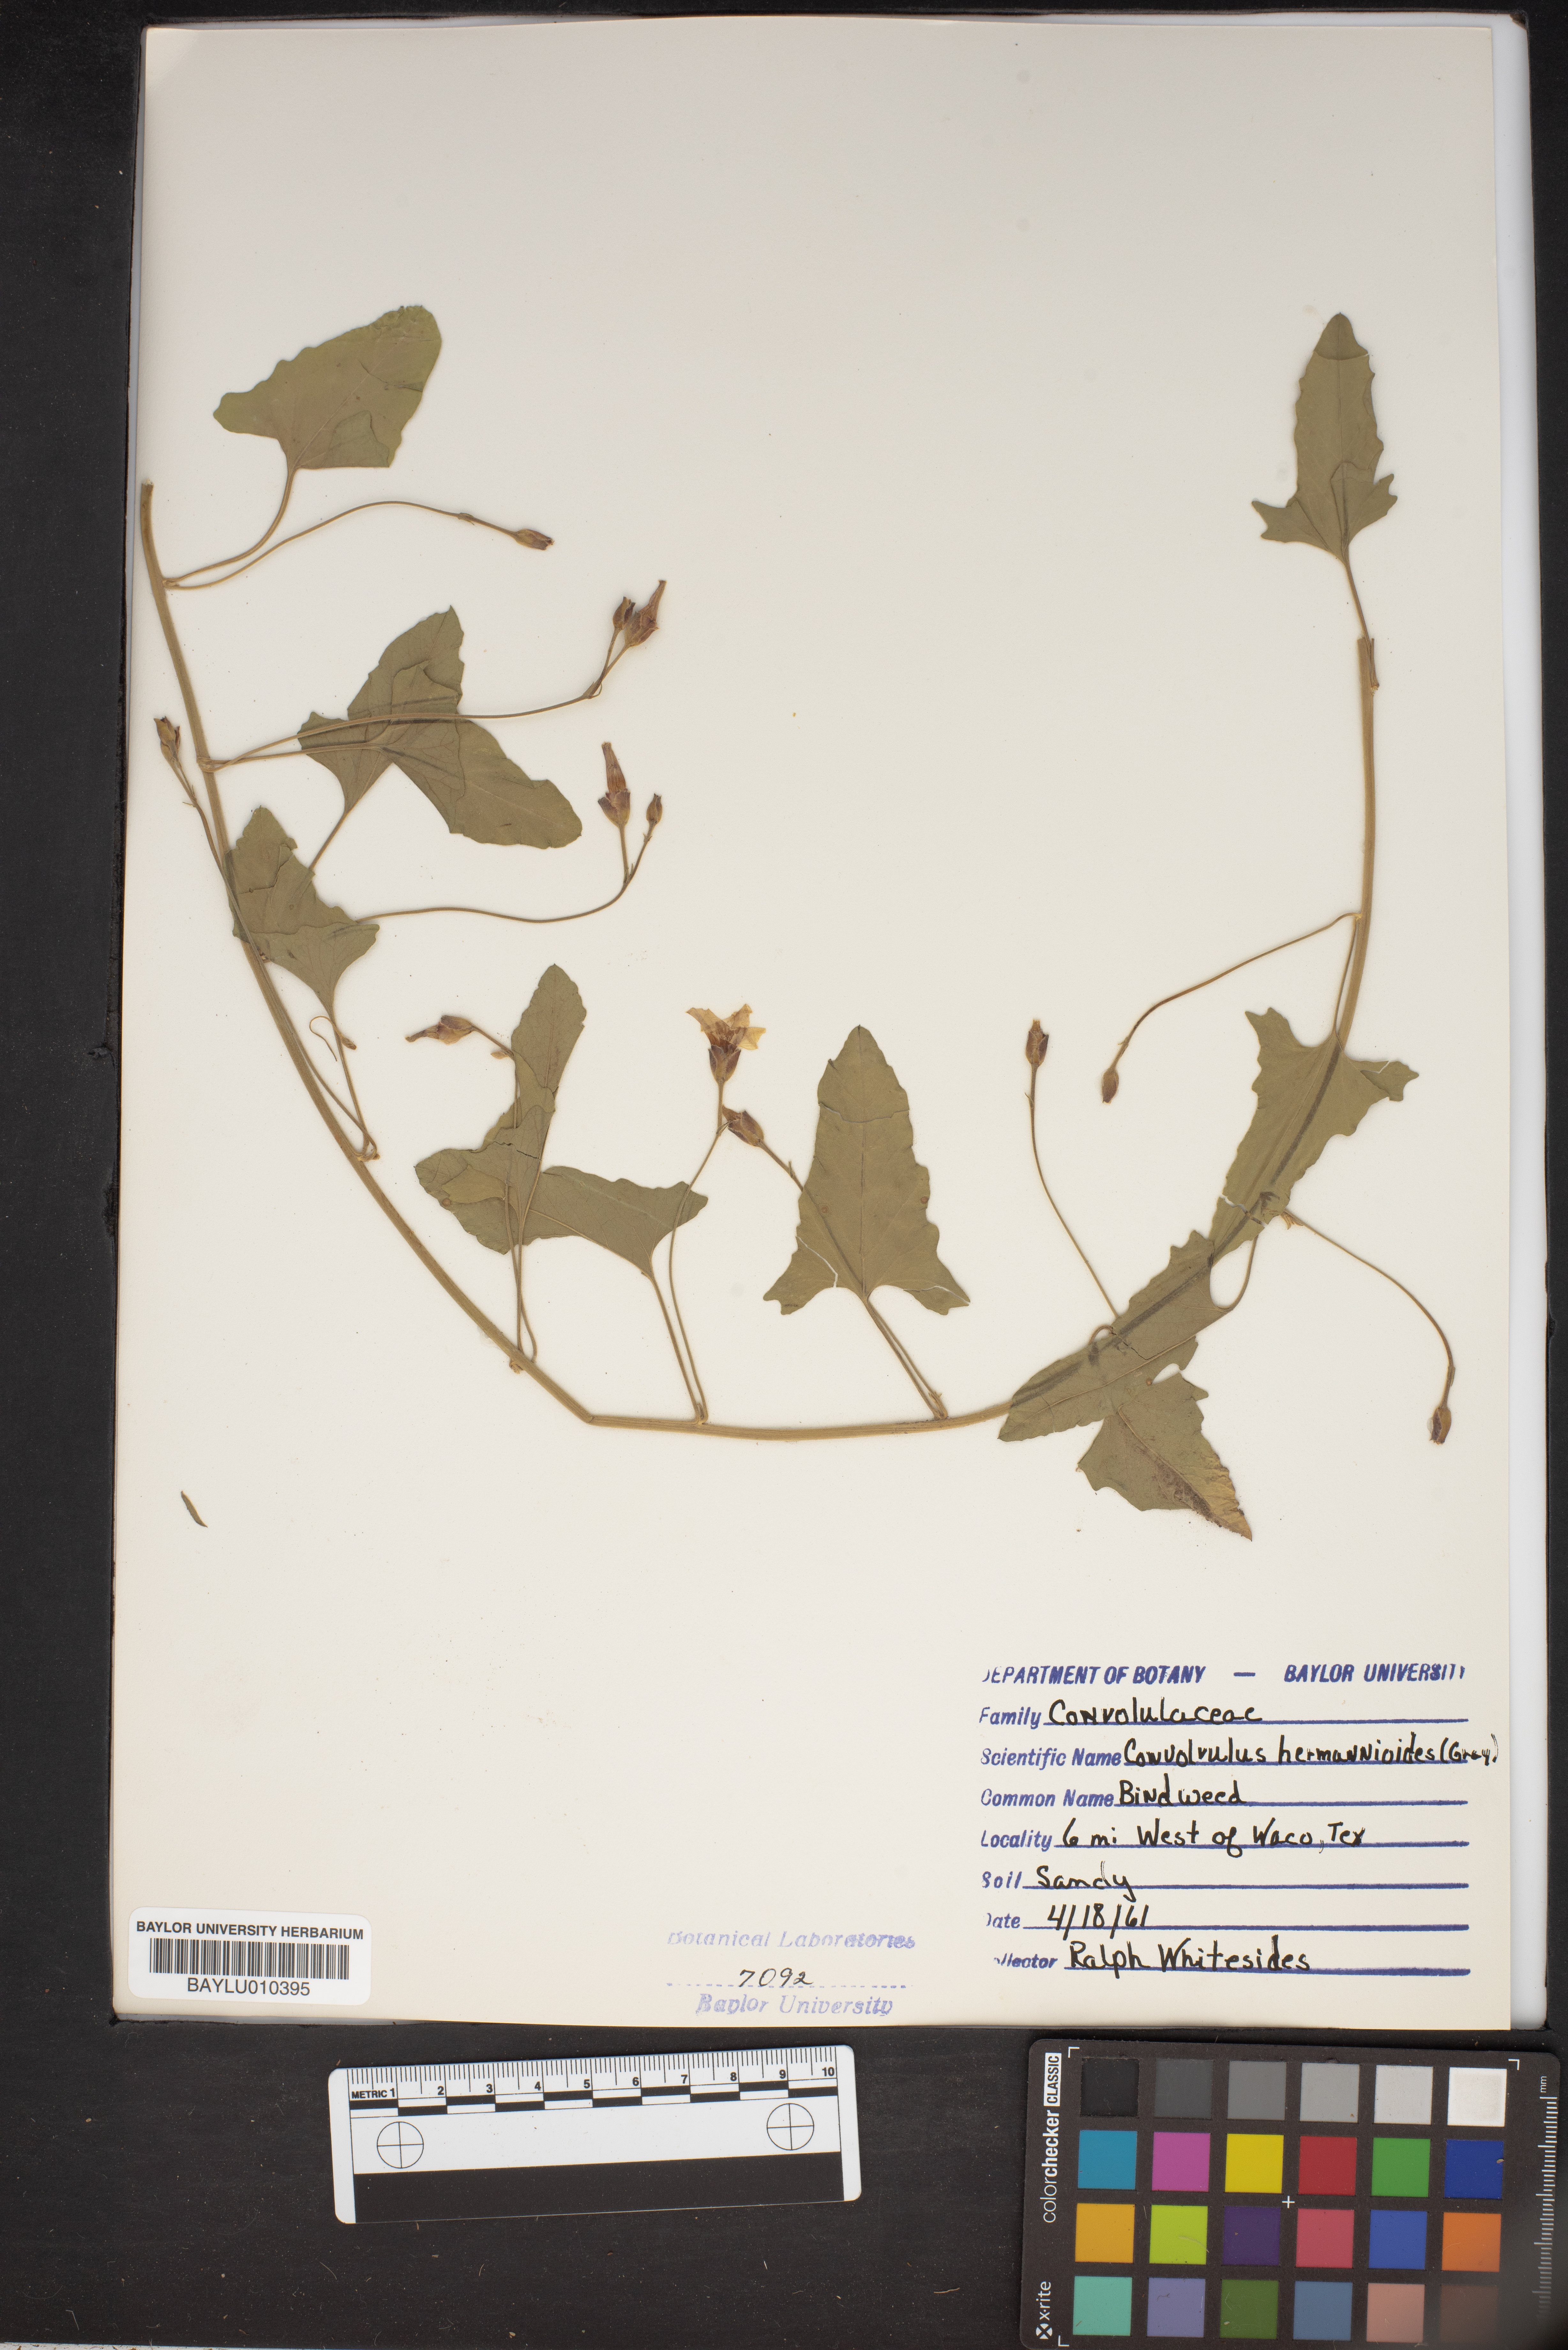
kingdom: Plantae
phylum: Tracheophyta
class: Magnoliopsida
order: Solanales
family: Convolvulaceae
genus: Convolvulus
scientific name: Convolvulus equitans
